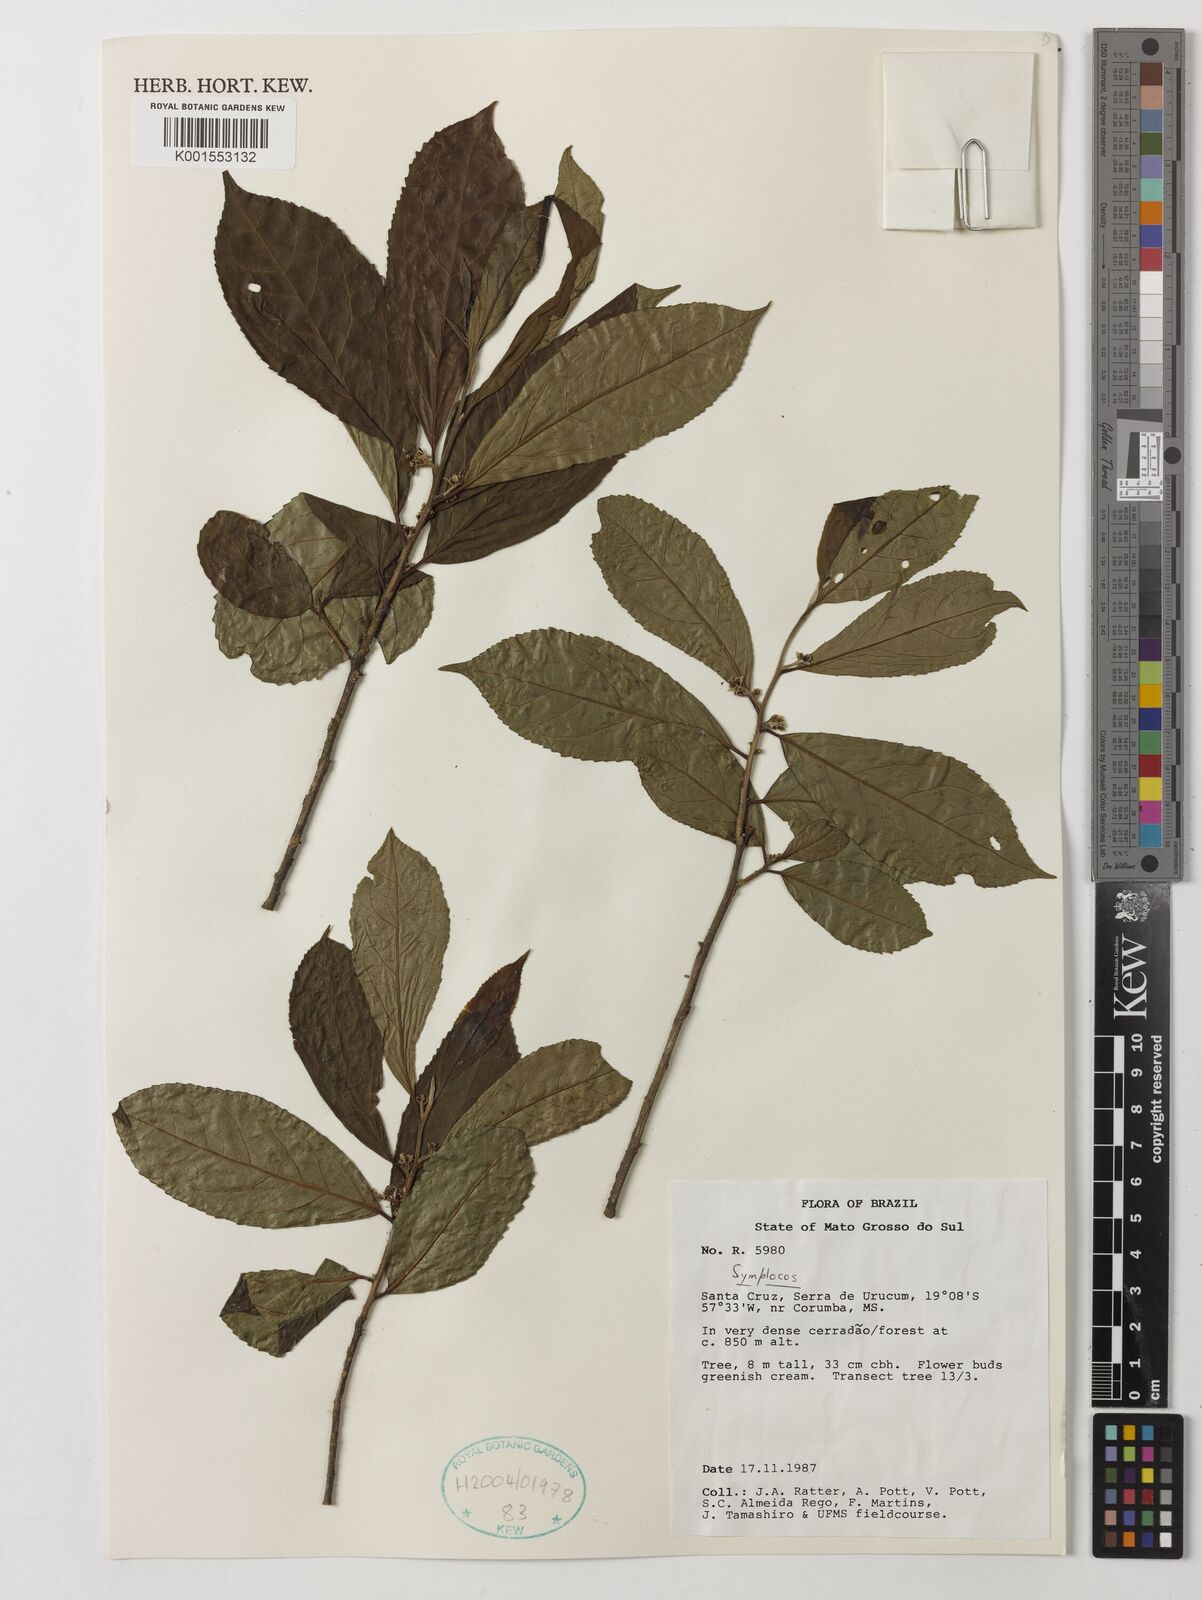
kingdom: Plantae
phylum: Tracheophyta
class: Magnoliopsida
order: Ericales
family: Symplocaceae
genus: Symplocos
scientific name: Symplocos
